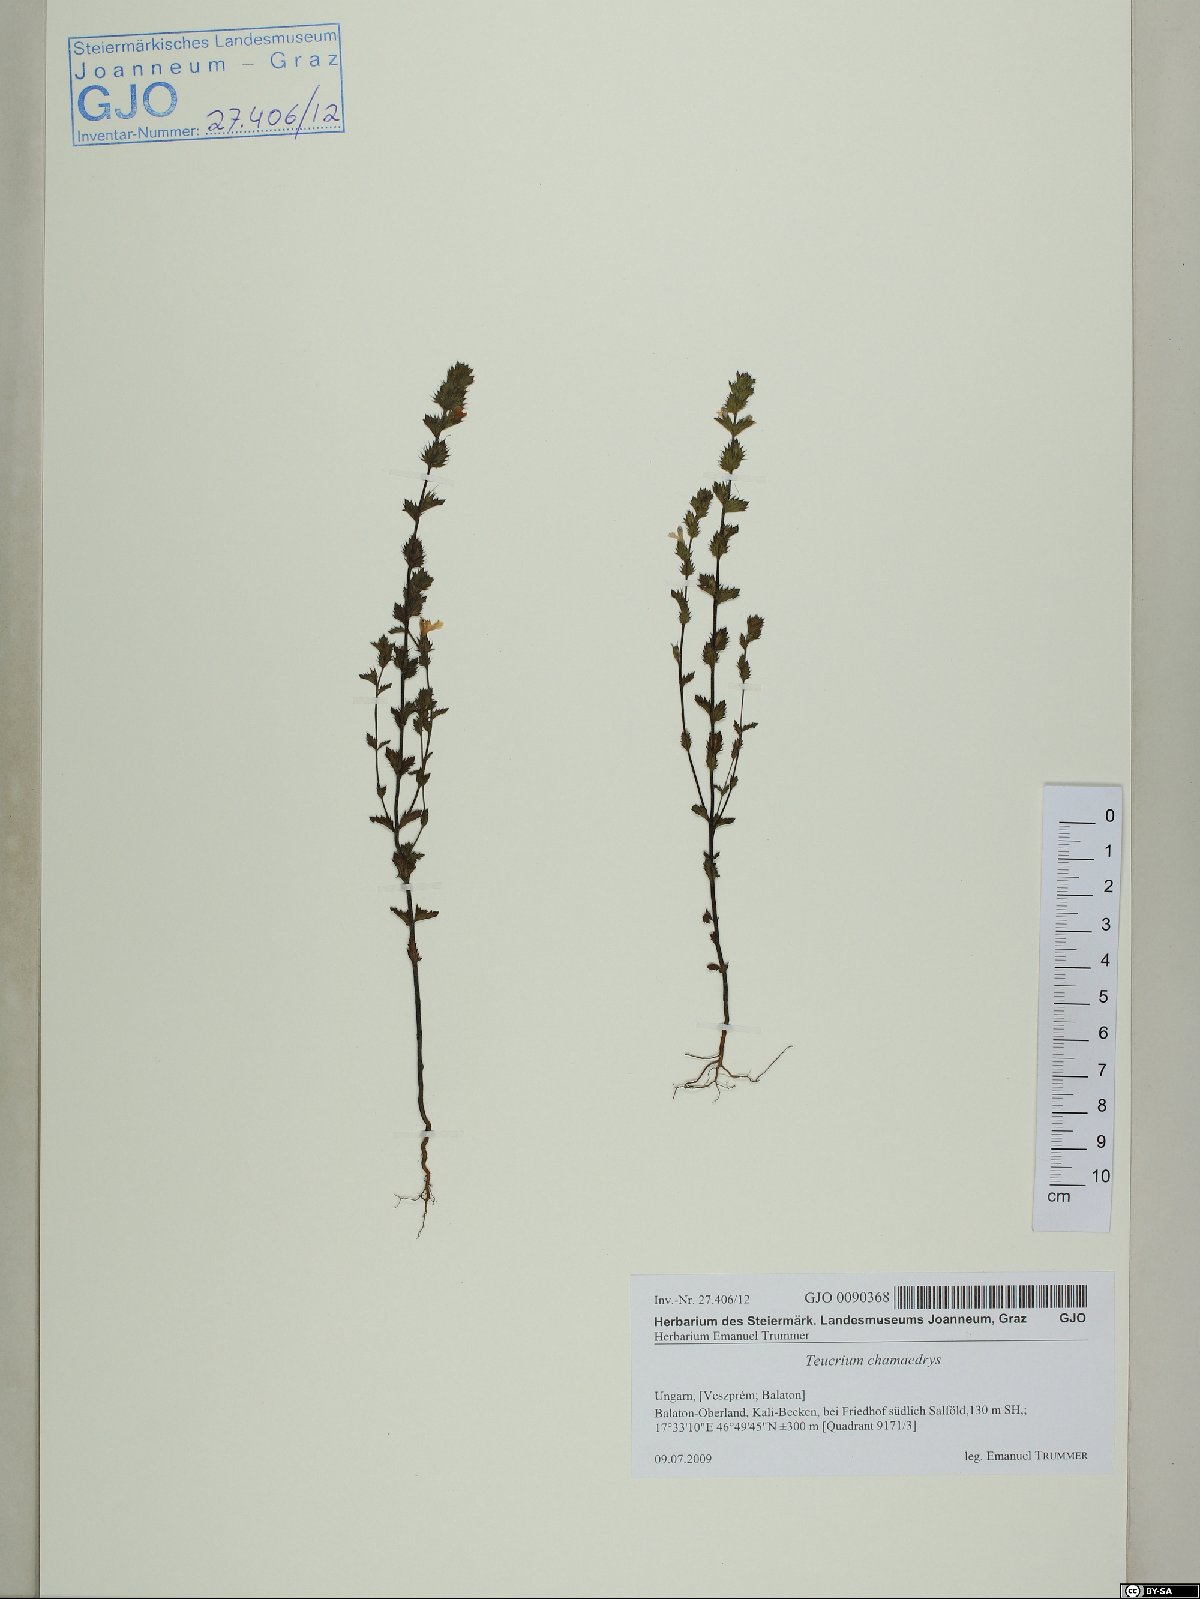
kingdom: Plantae
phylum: Tracheophyta
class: Magnoliopsida
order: Lamiales
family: Orobanchaceae
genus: Euphrasia
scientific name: Euphrasia kerneri
